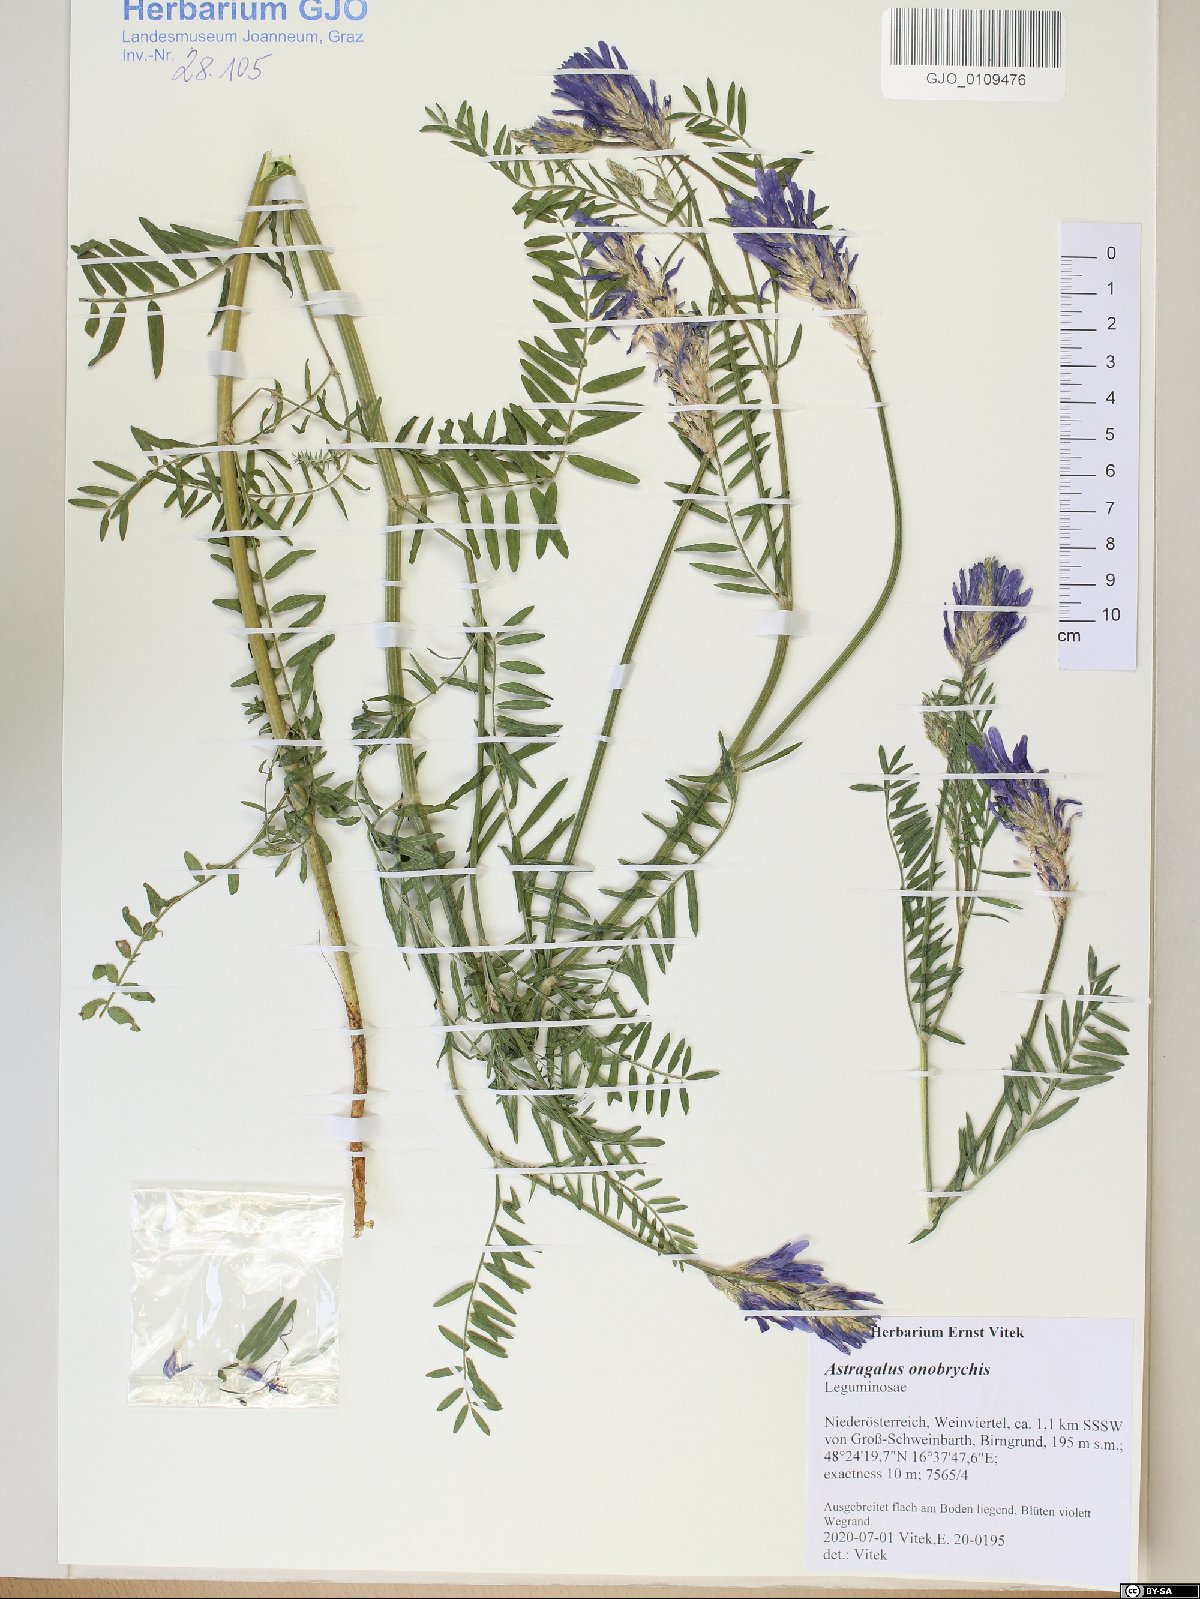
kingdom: Plantae
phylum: Tracheophyta
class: Magnoliopsida
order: Fabales
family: Fabaceae
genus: Astragalus
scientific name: Astragalus onobrychis
